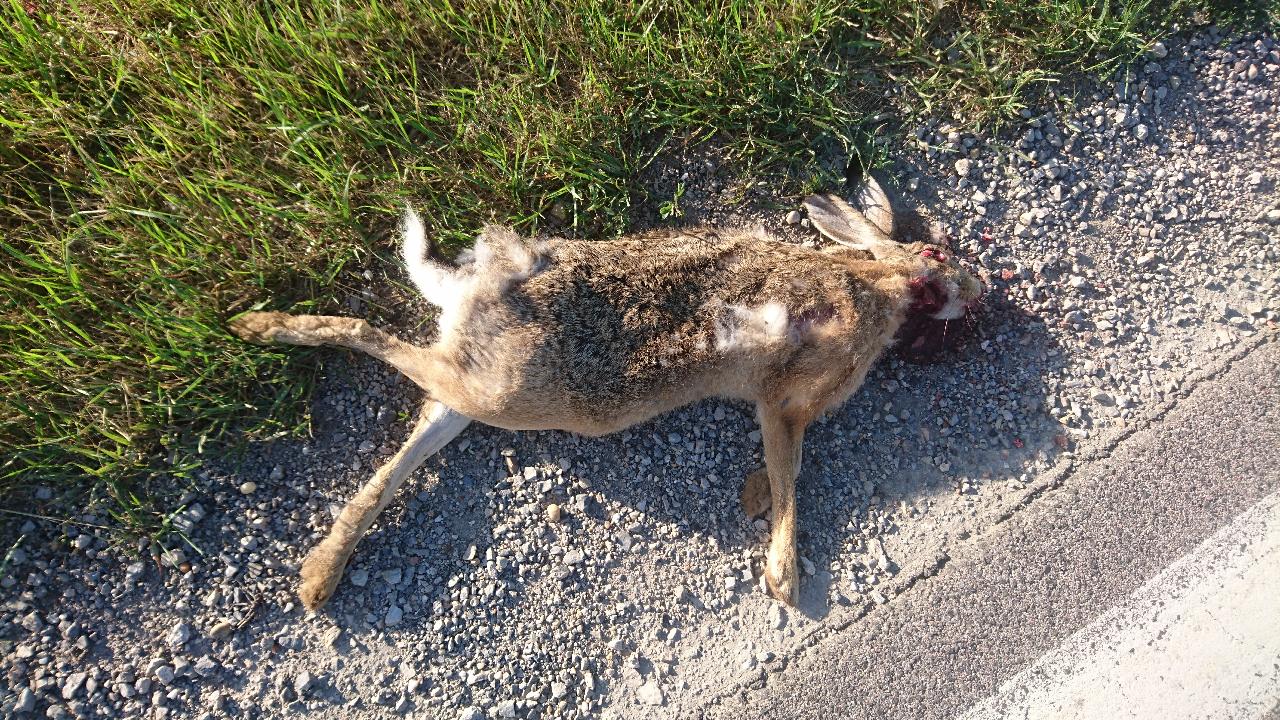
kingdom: Animalia
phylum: Chordata
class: Mammalia
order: Lagomorpha
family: Leporidae
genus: Lepus
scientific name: Lepus europaeus
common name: European hare
